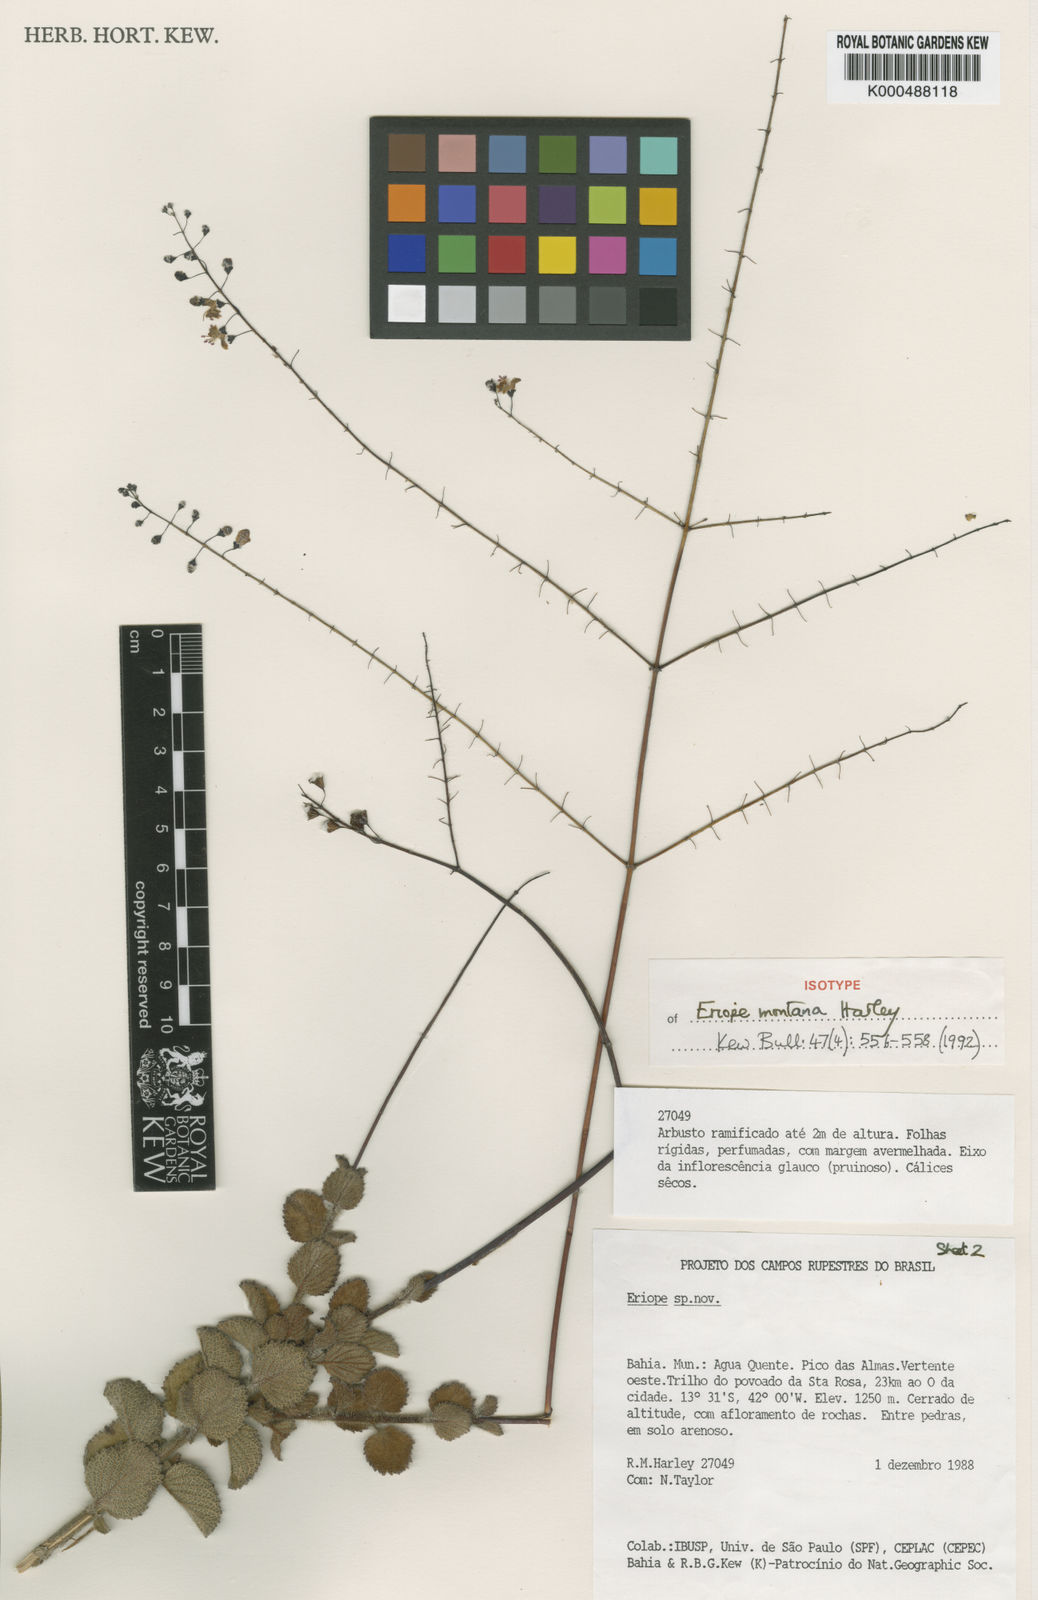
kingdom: Plantae
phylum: Tracheophyta
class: Magnoliopsida
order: Lamiales
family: Lamiaceae
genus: Eriope
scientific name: Eriope montana
